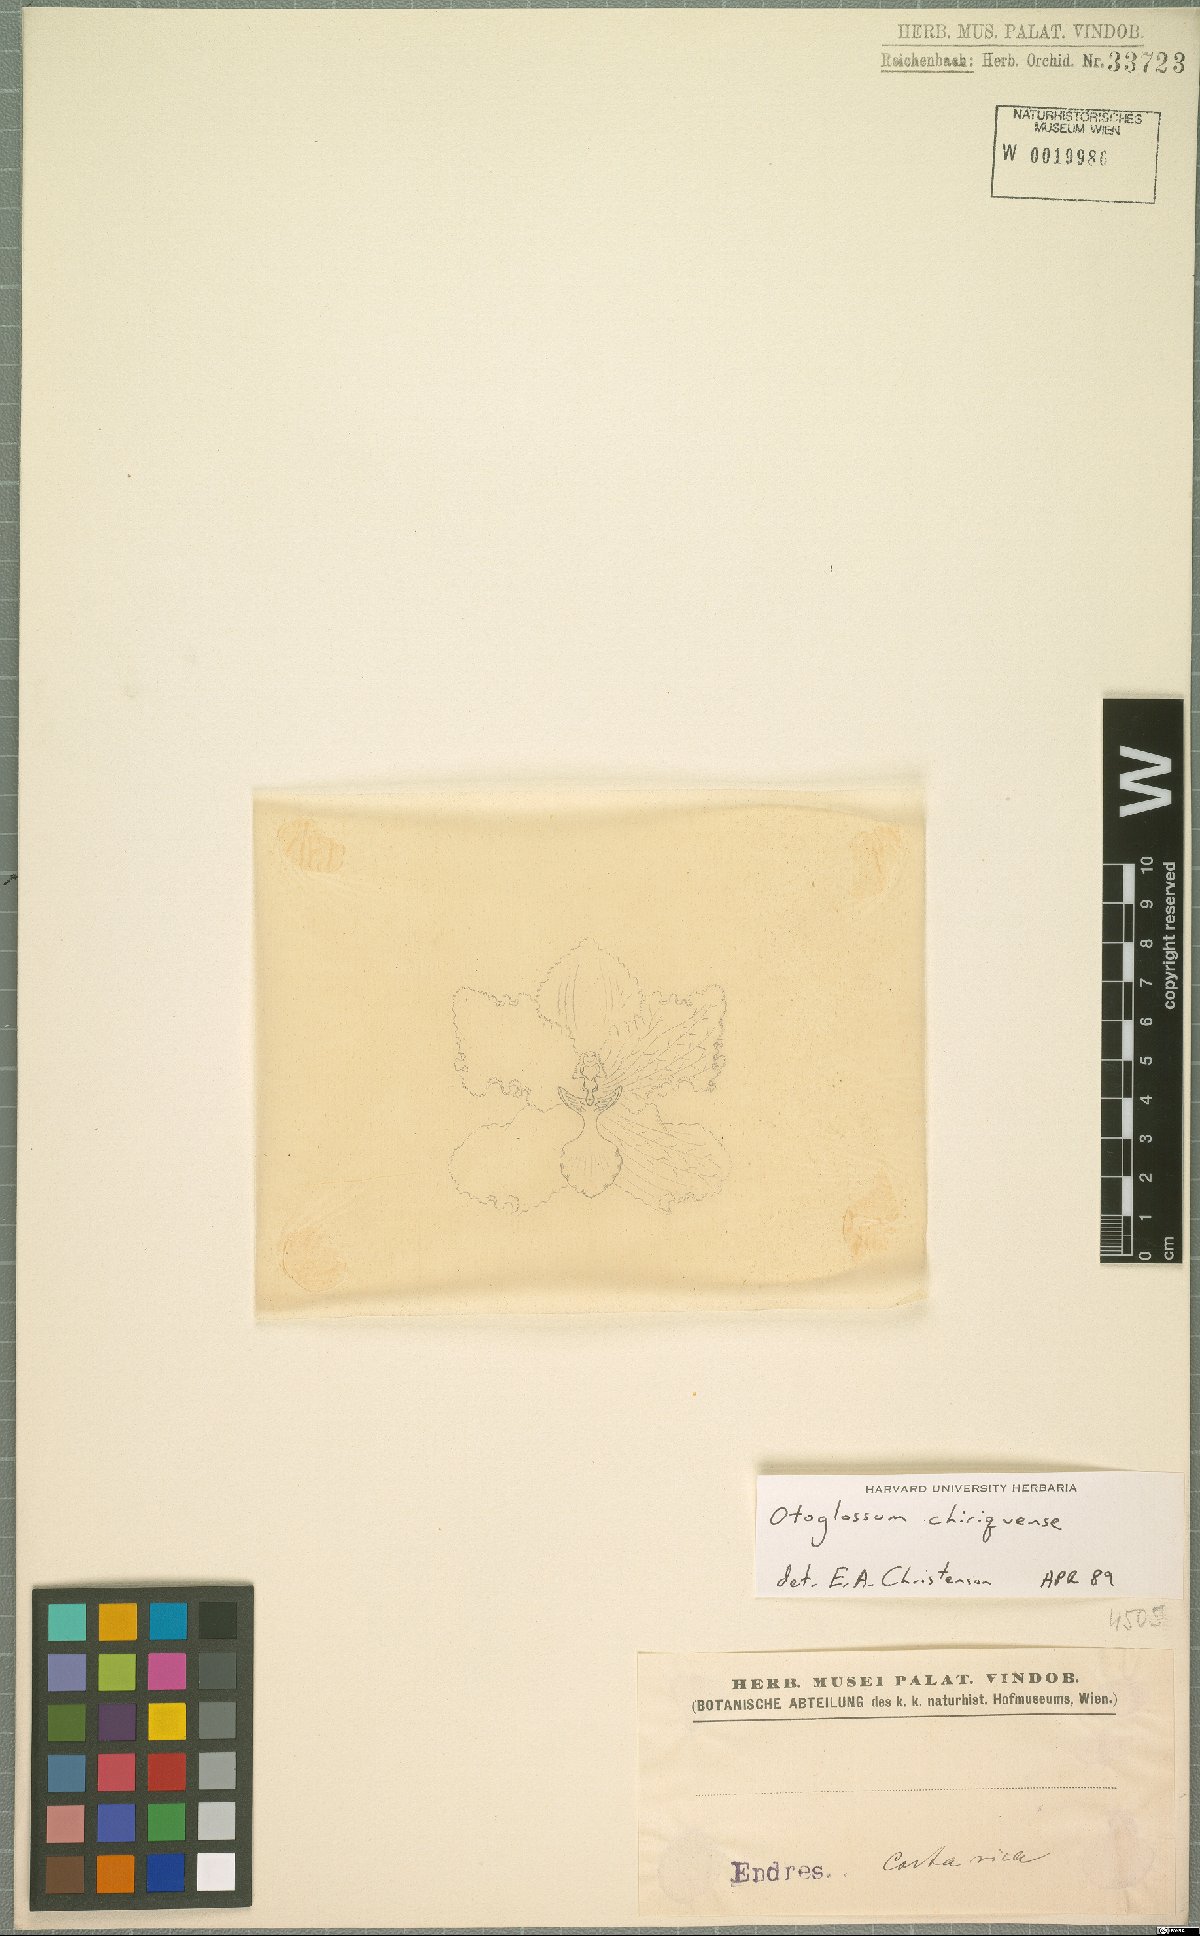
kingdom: Plantae
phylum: Tracheophyta
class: Liliopsida
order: Asparagales
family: Orchidaceae
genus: Otoglossum
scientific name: Otoglossum chiriquense
